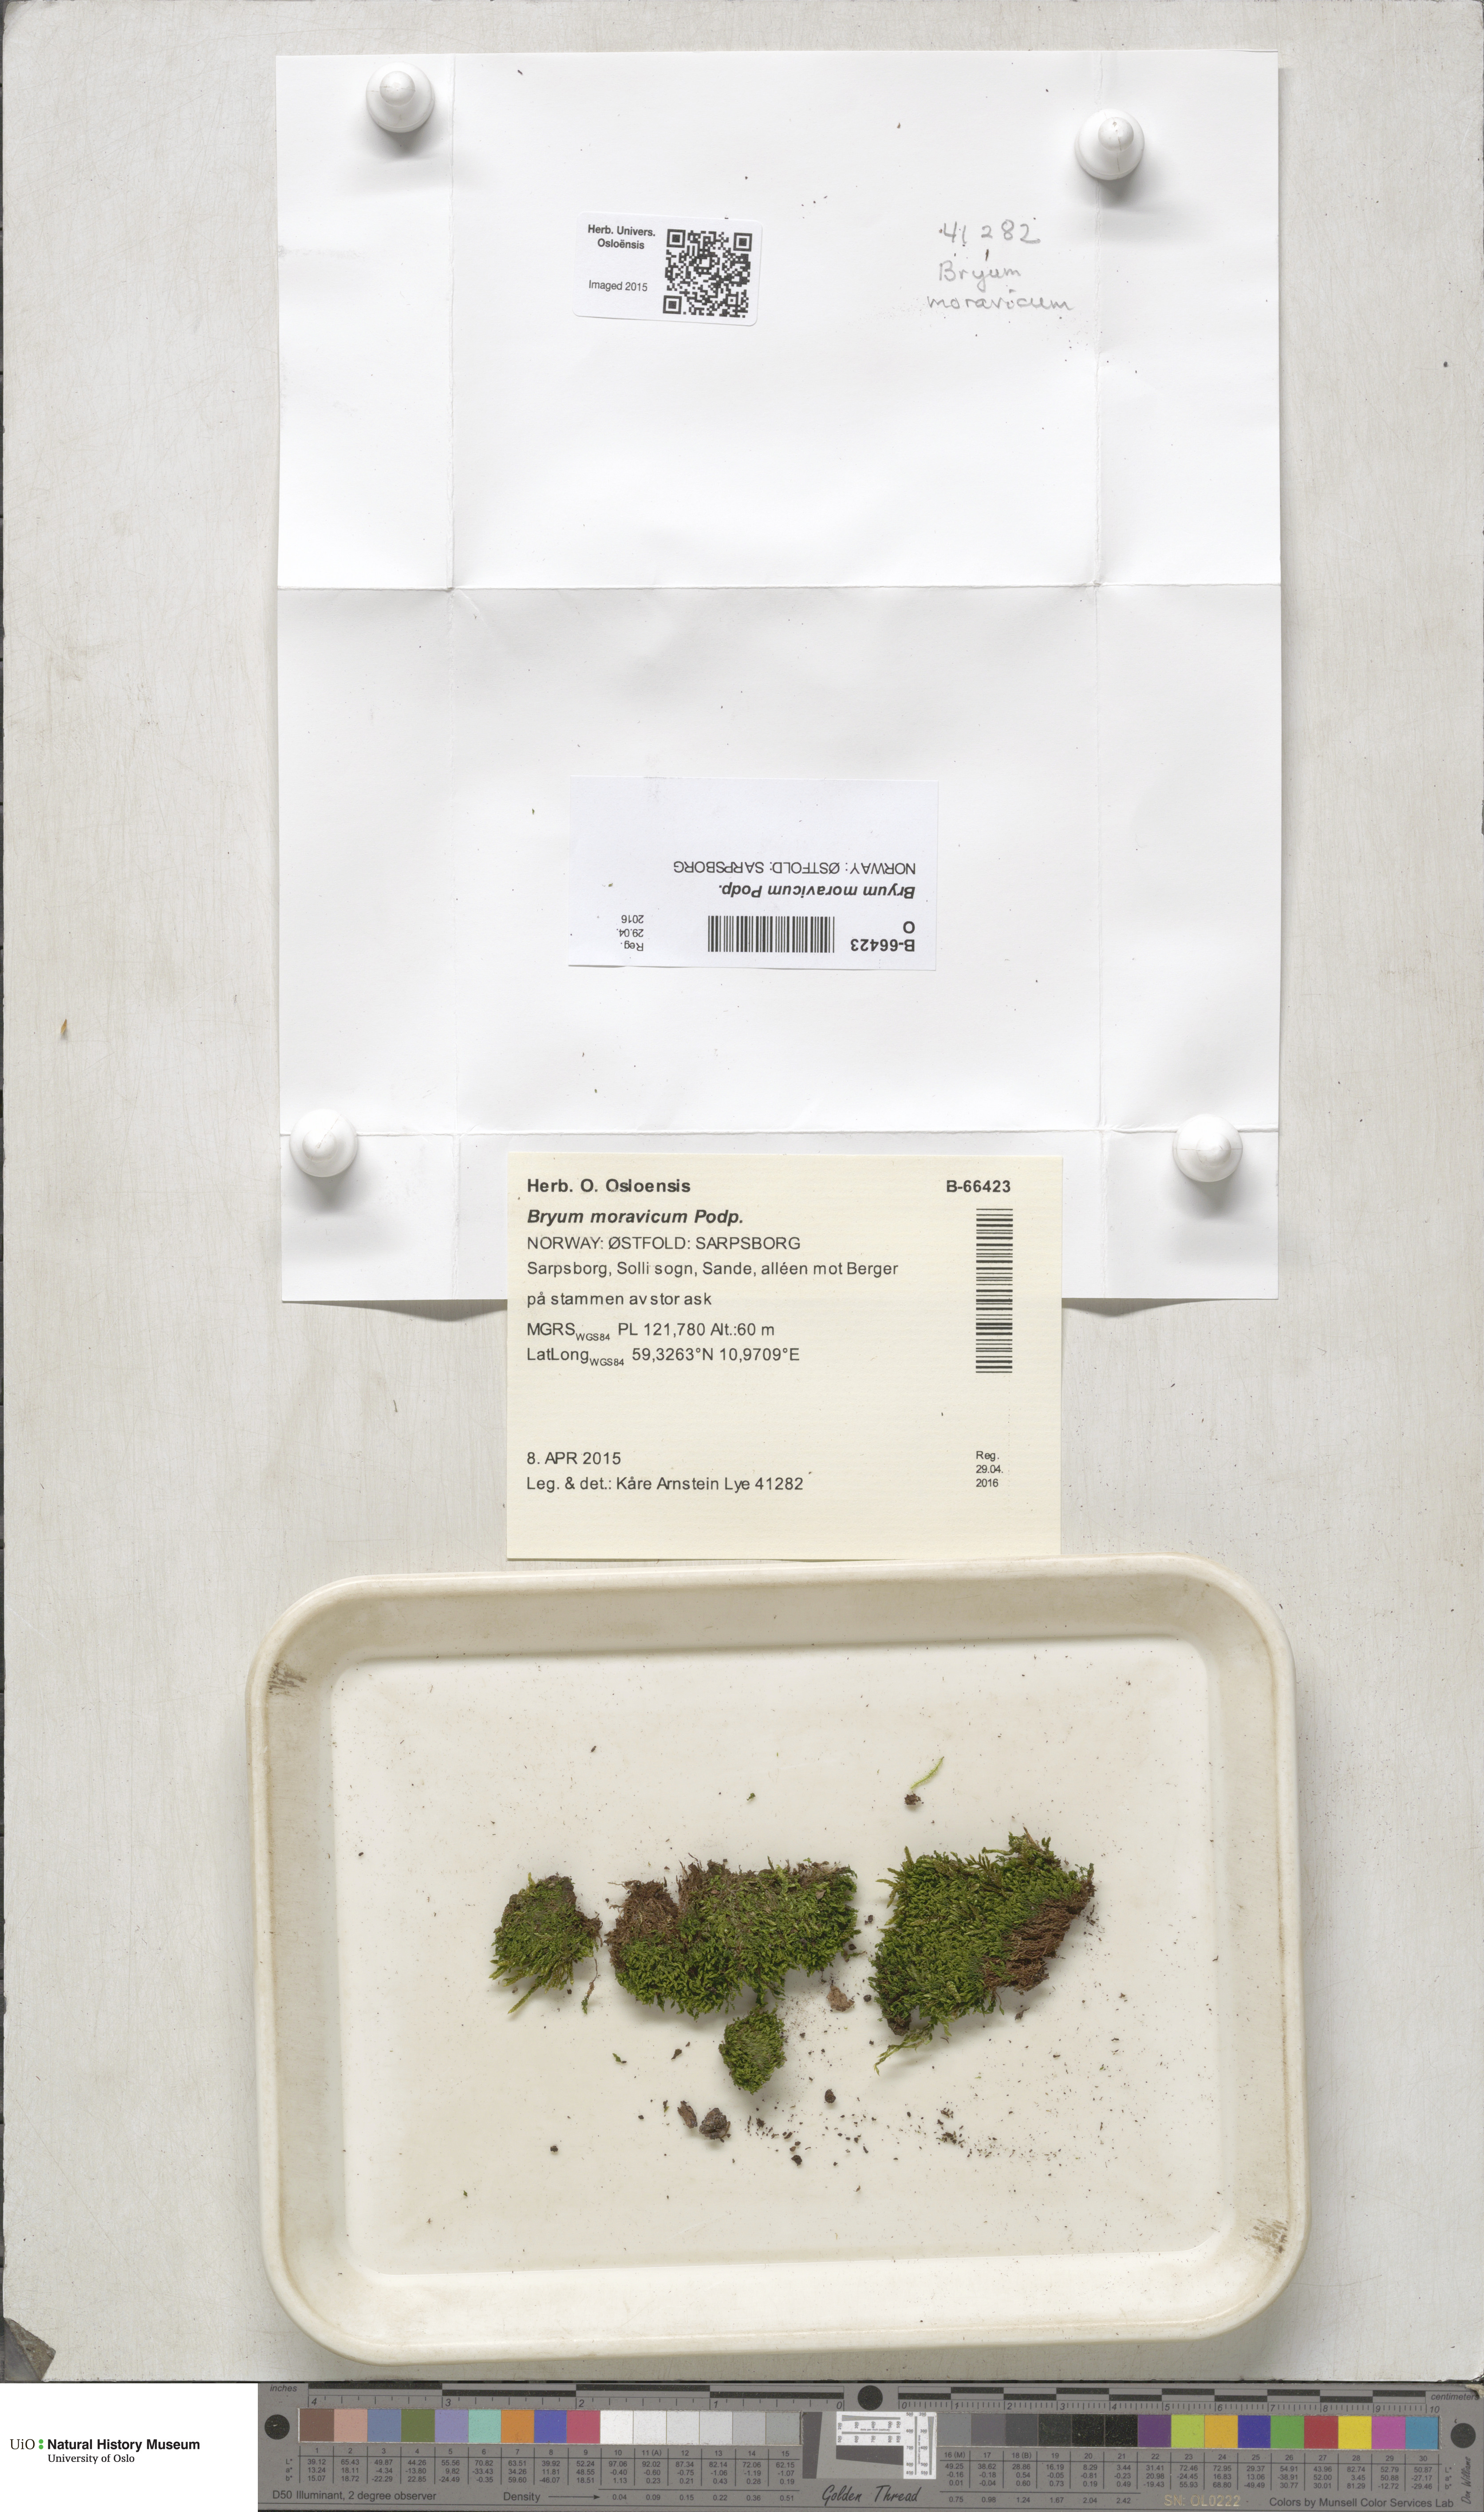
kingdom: Plantae
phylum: Bryophyta
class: Bryopsida
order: Bryales
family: Bryaceae
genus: Rosulabryum
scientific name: Rosulabryum moravicum
